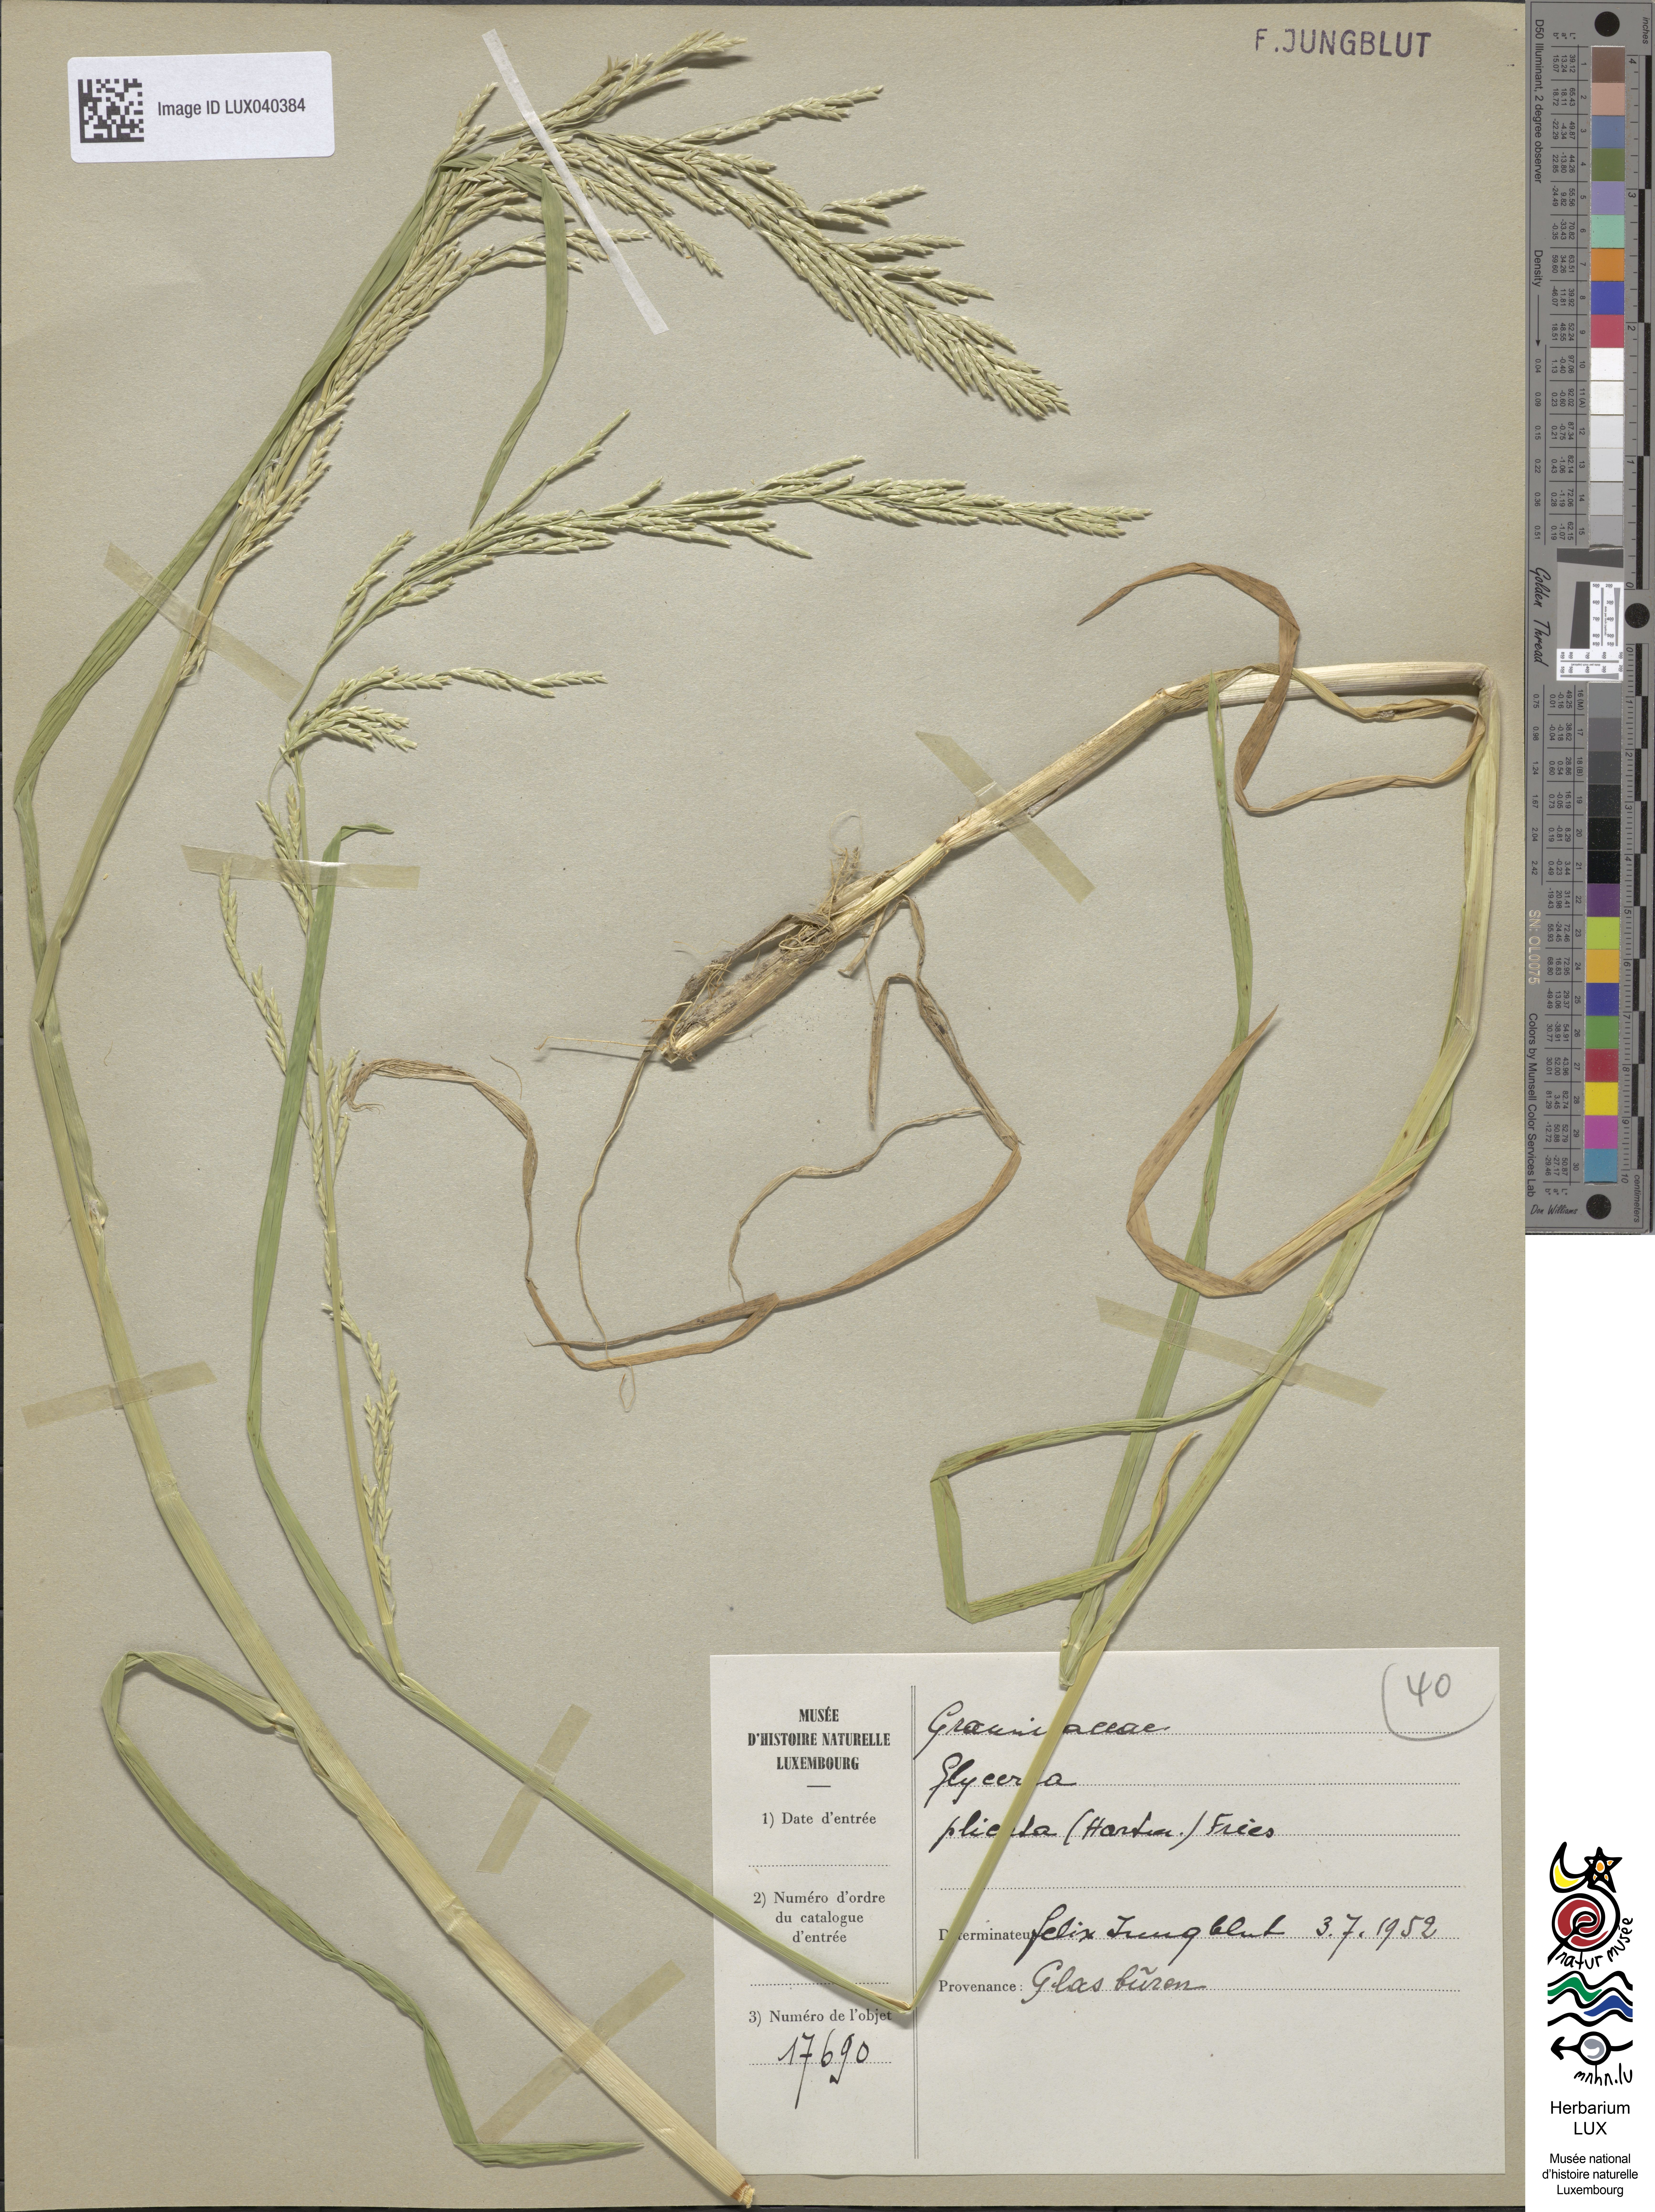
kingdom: Plantae
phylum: Tracheophyta
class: Liliopsida
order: Poales
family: Poaceae
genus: Glyceria
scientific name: Glyceria notata
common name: Plicate sweet-grass
